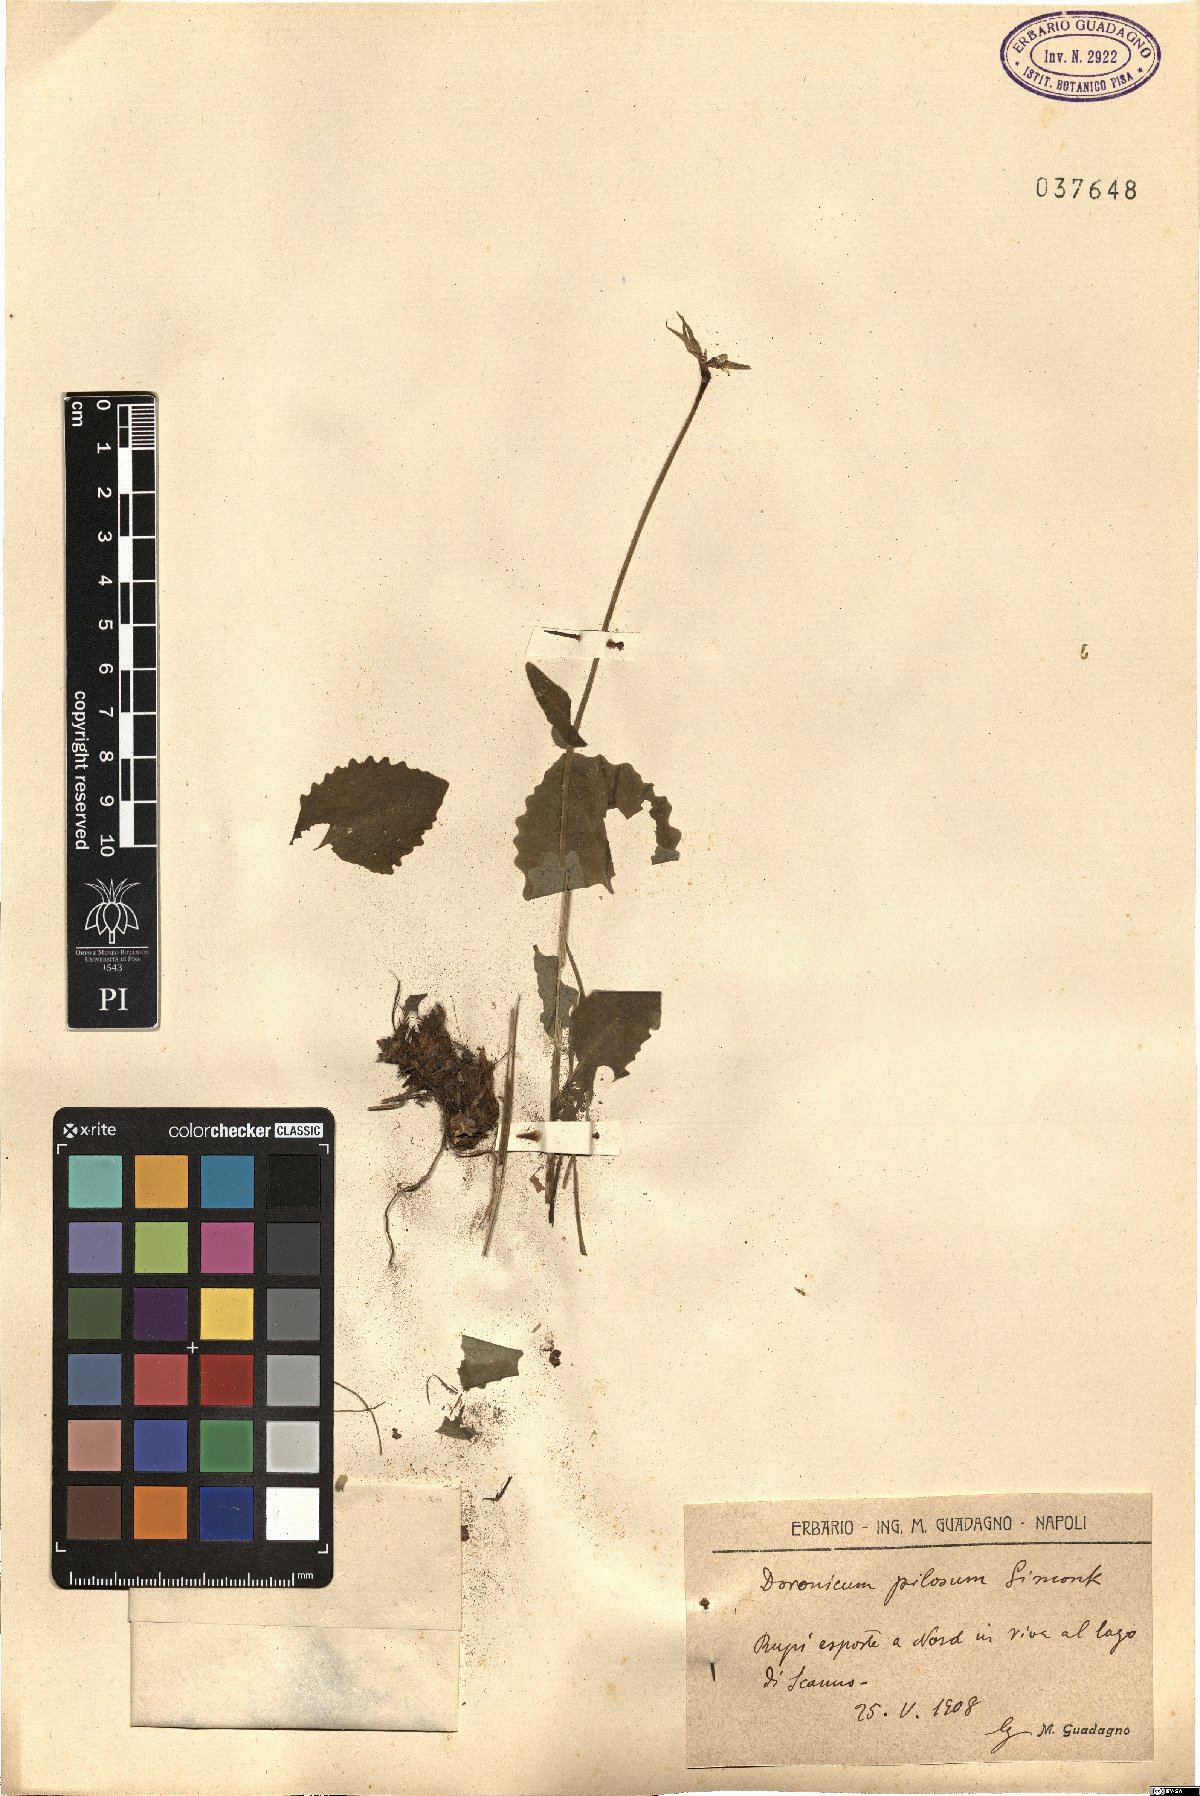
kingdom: Plantae
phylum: Tracheophyta
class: Magnoliopsida
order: Asterales
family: Asteraceae
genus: Doronicum
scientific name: Doronicum columnae
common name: Eastern leopard's-bane
